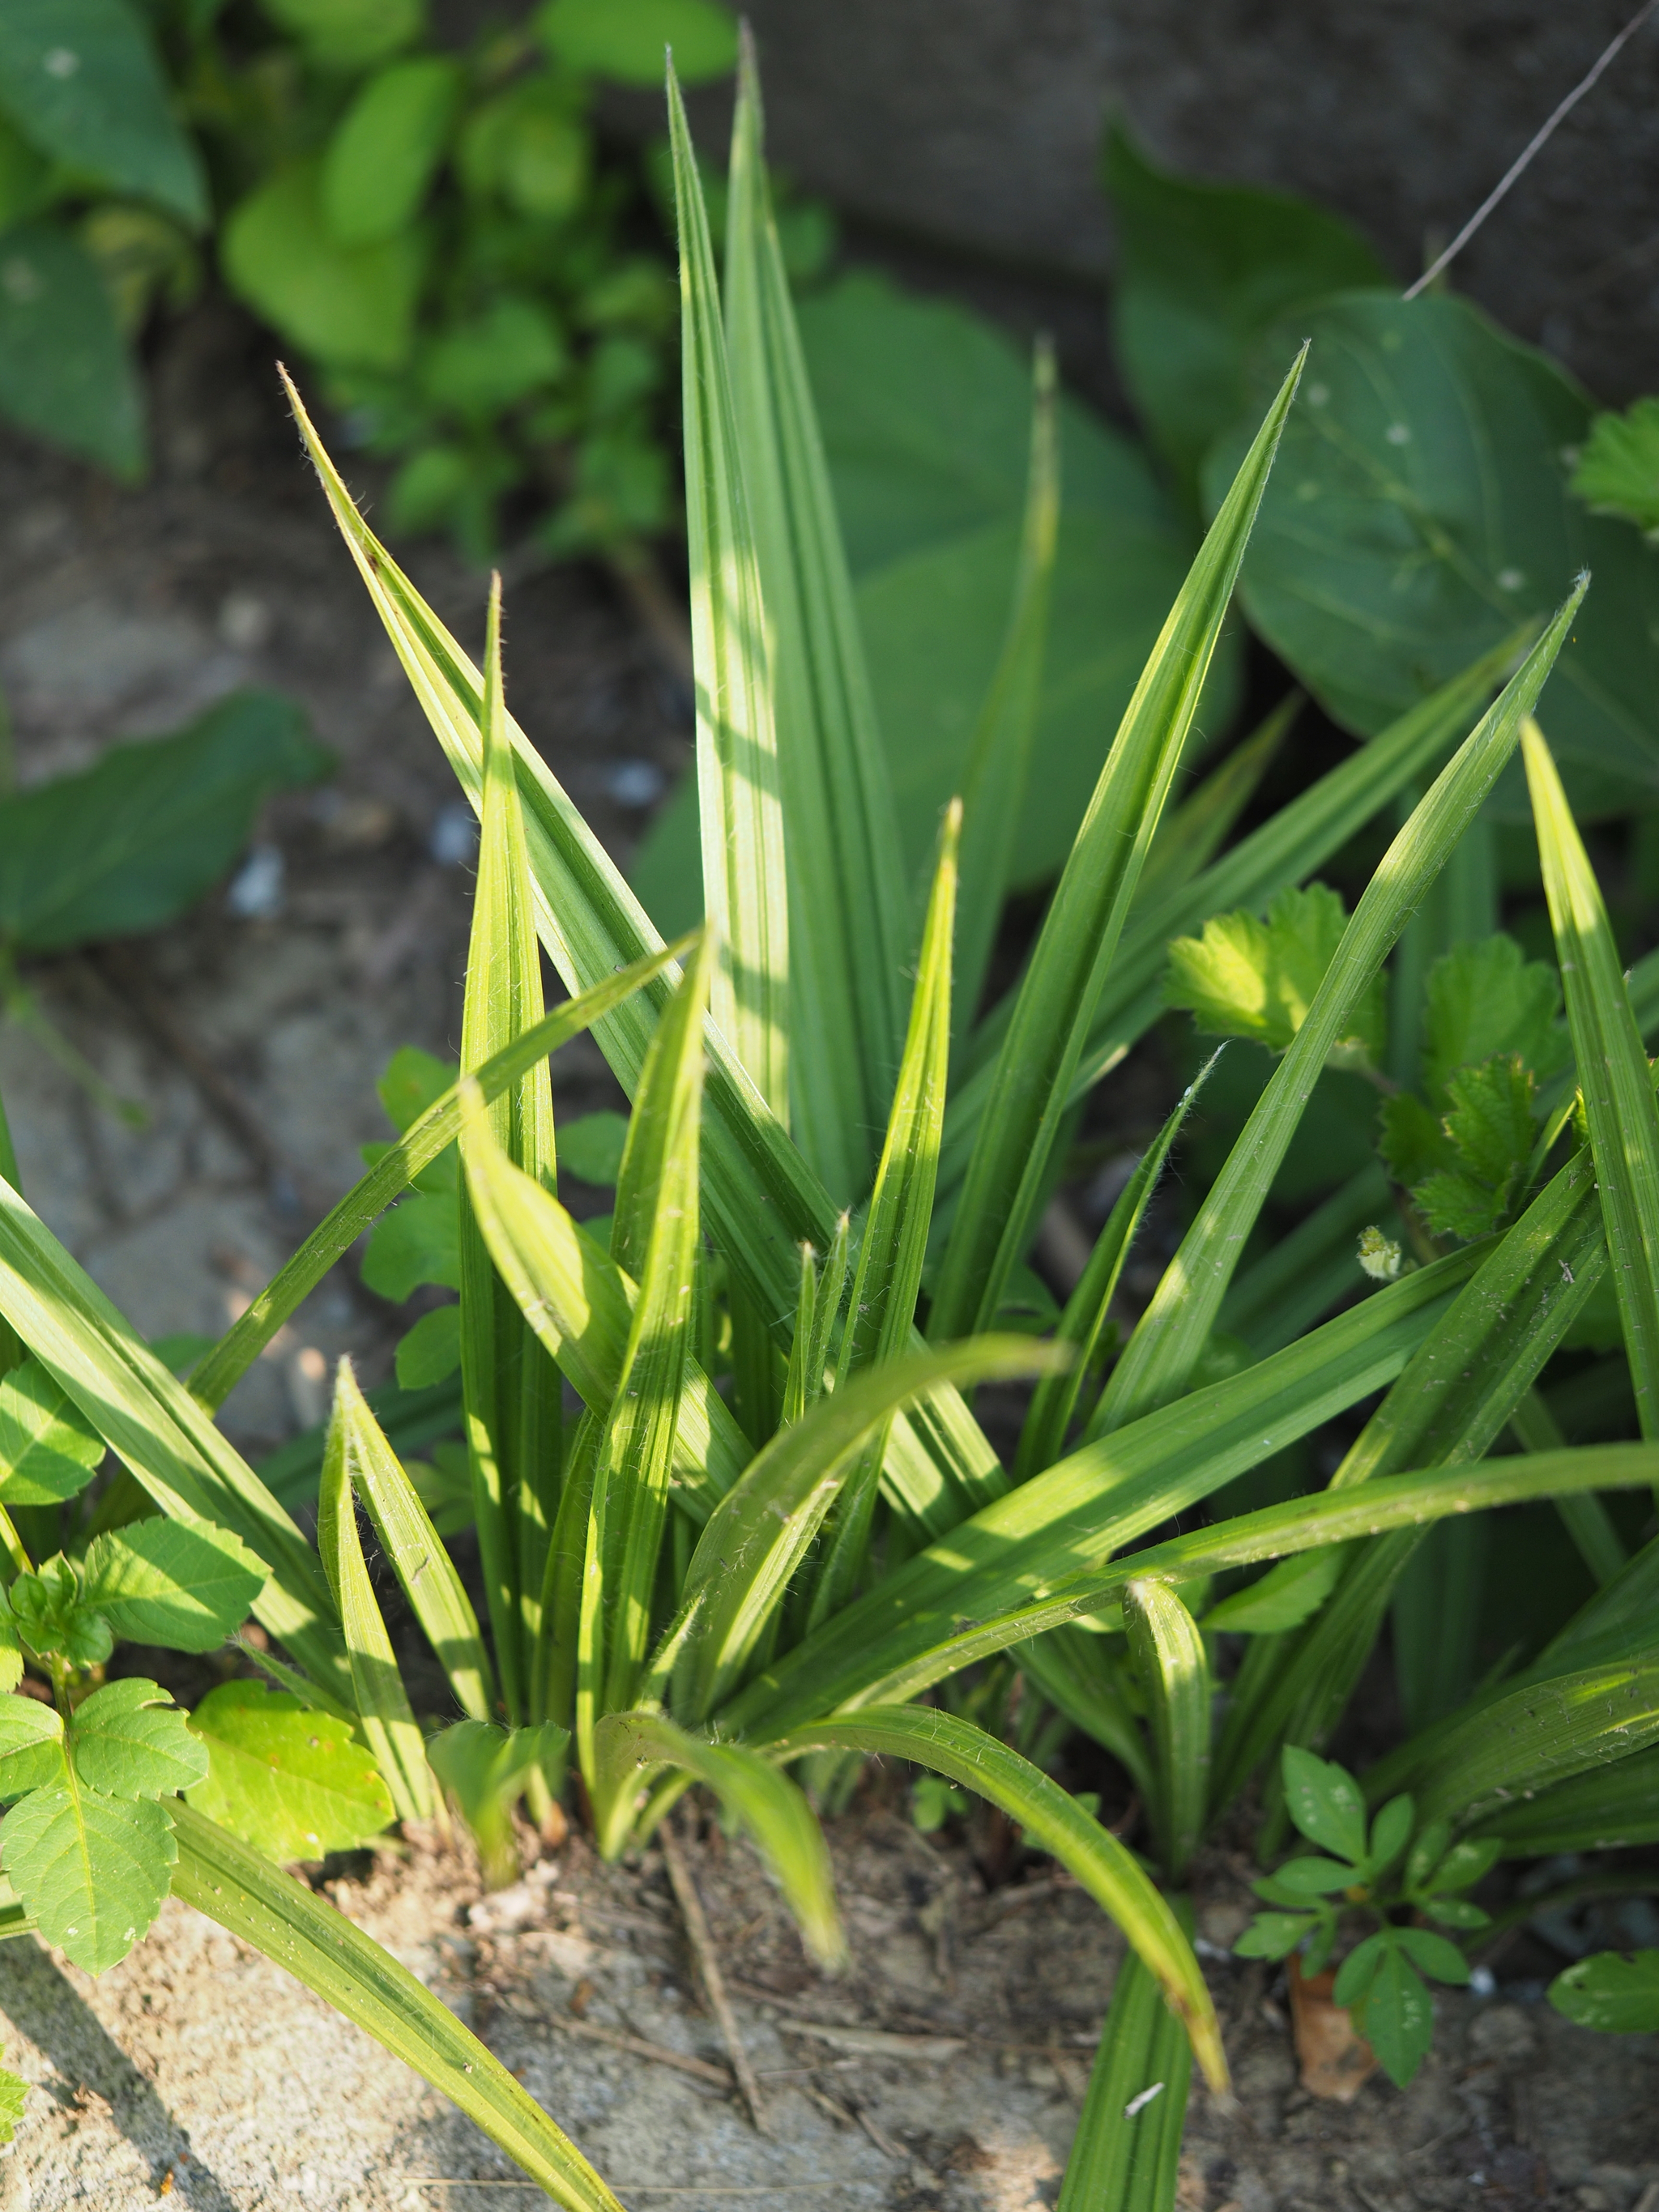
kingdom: Plantae
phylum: Tracheophyta
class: Liliopsida
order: Asparagales
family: Hypoxidaceae
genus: Curculigo
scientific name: Curculigo orchioides
